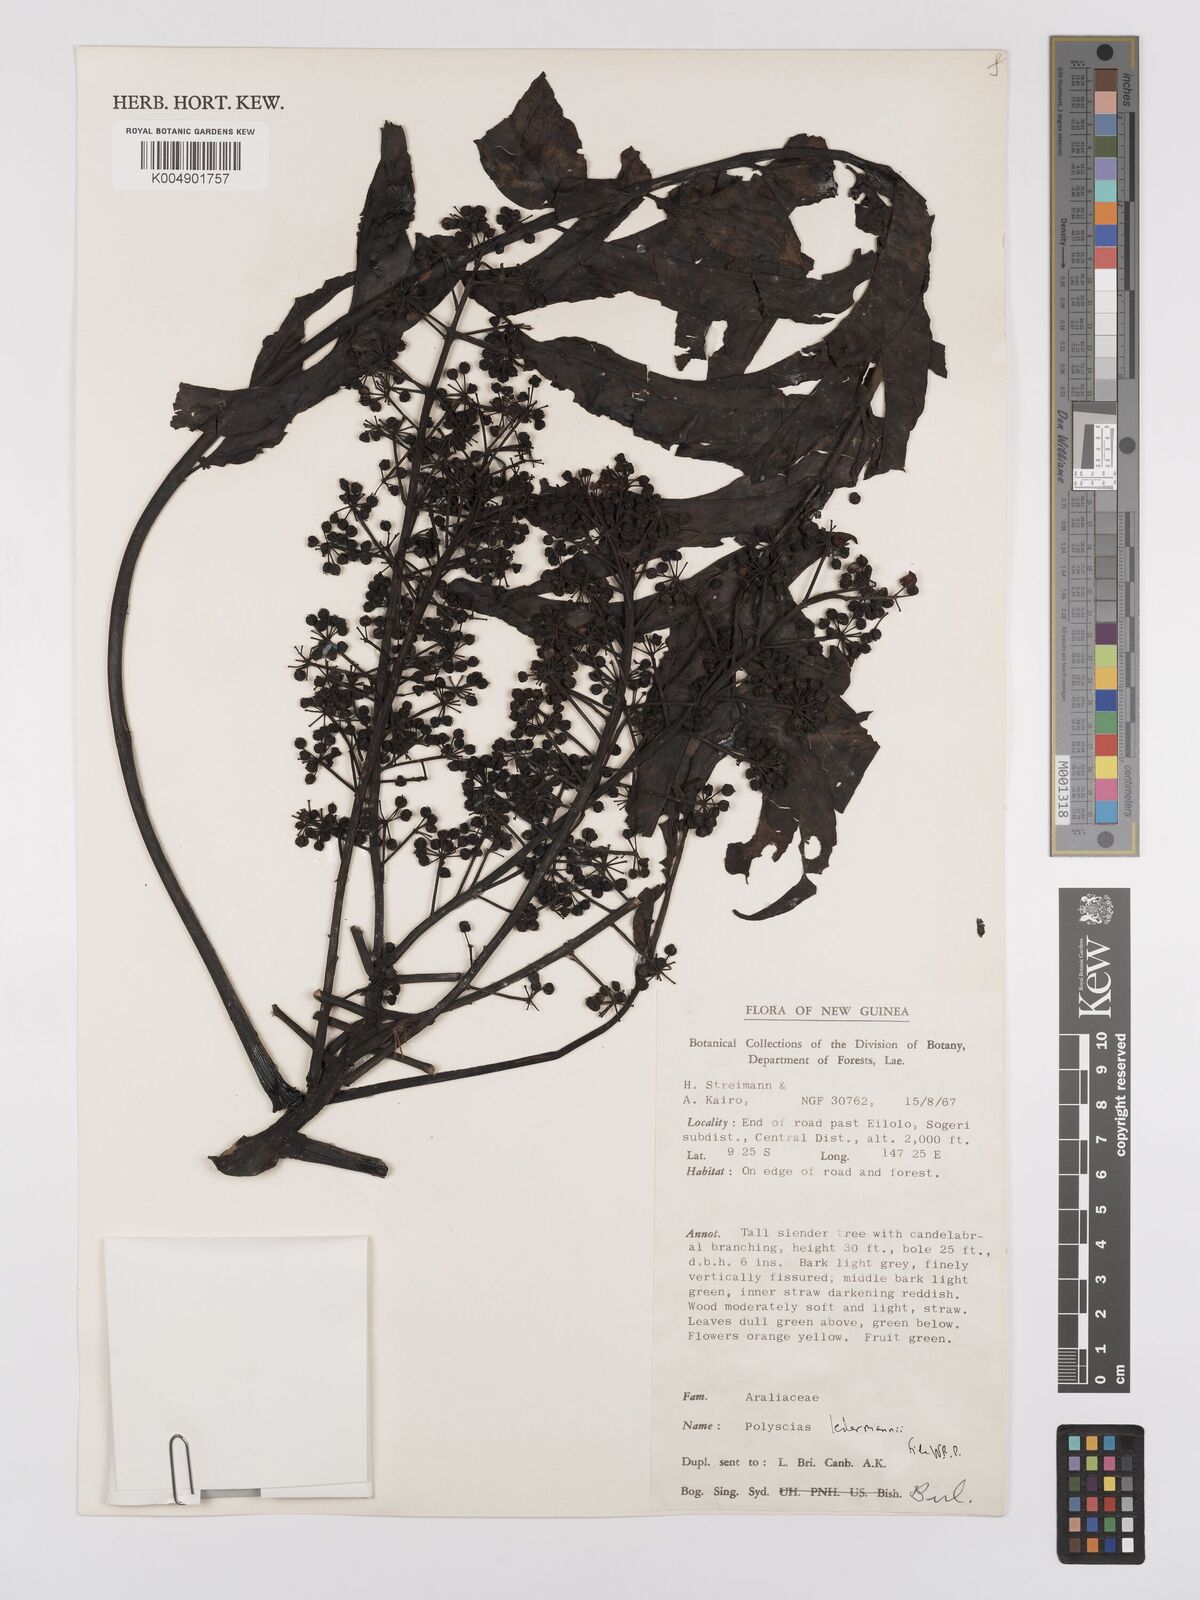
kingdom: Plantae
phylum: Tracheophyta
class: Magnoliopsida
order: Apiales
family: Araliaceae
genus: Polyscias
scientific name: Polyscias ledermannii
